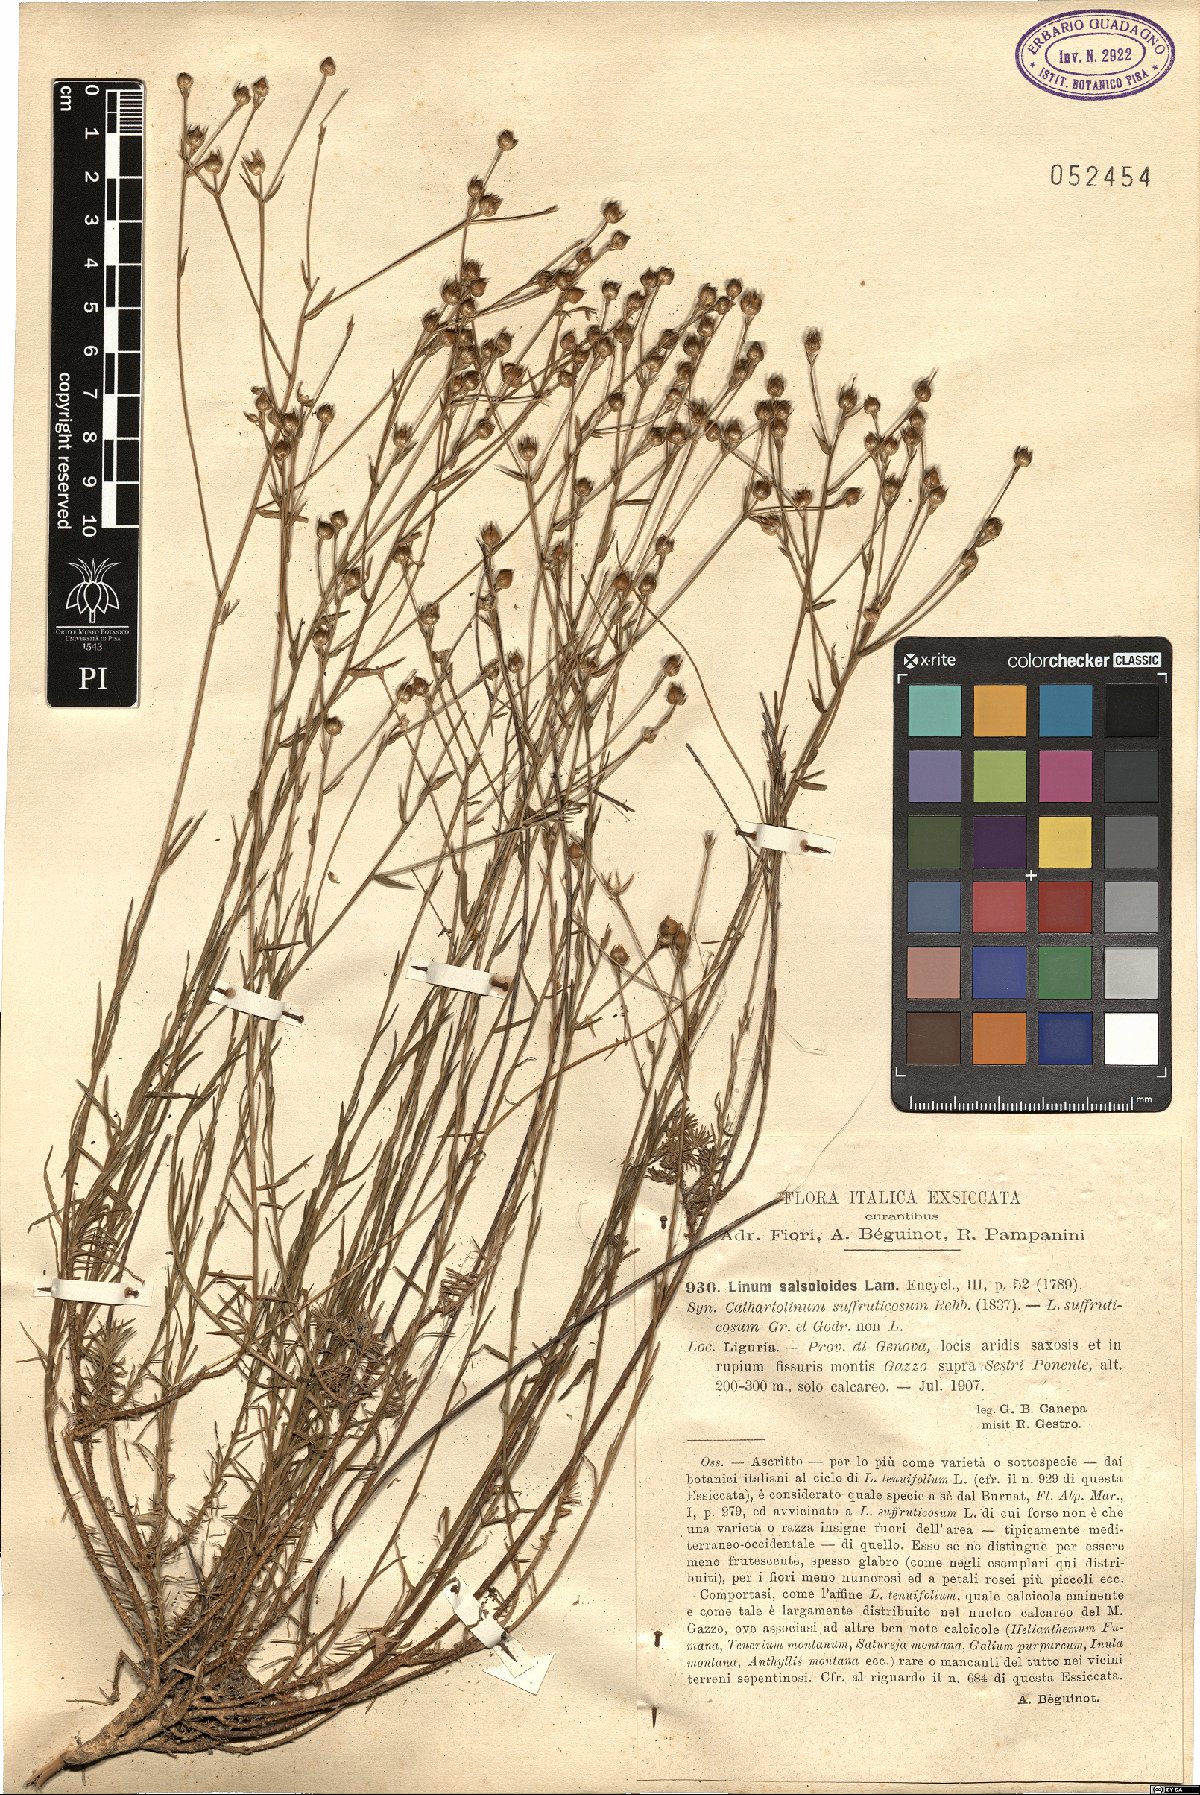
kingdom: Plantae
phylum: Tracheophyta
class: Magnoliopsida
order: Malpighiales
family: Linaceae
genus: Linum
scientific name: Linum salsoloides
